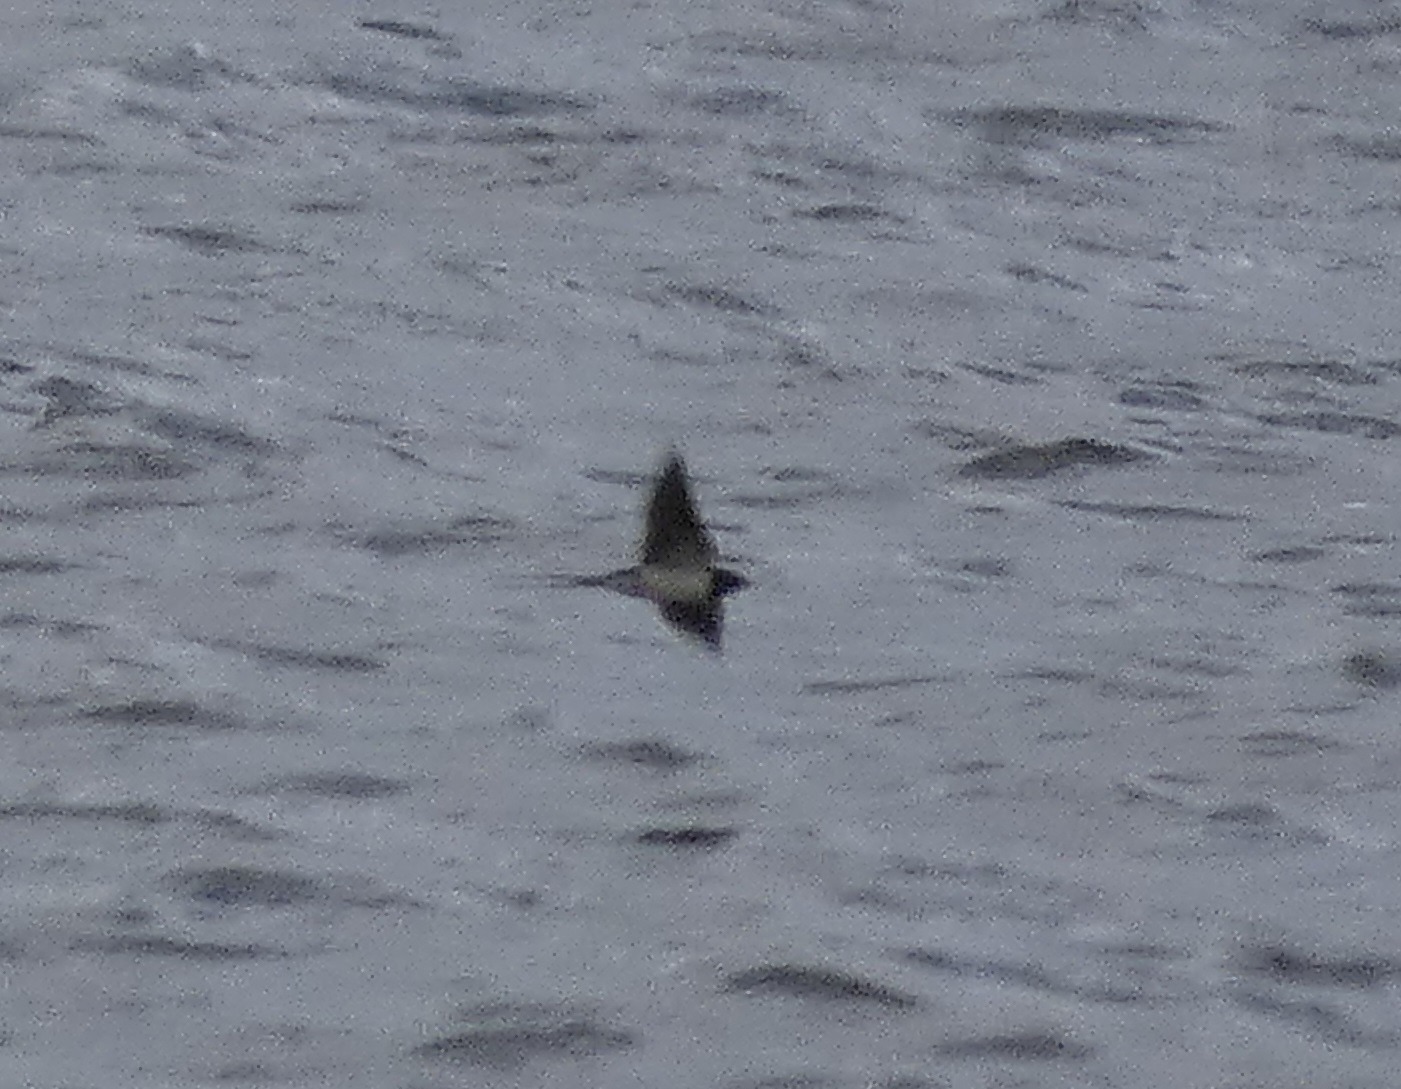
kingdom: Animalia
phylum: Chordata
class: Aves
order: Passeriformes
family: Hirundinidae
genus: Hirundo
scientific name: Hirundo rustica
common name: Landsvale
